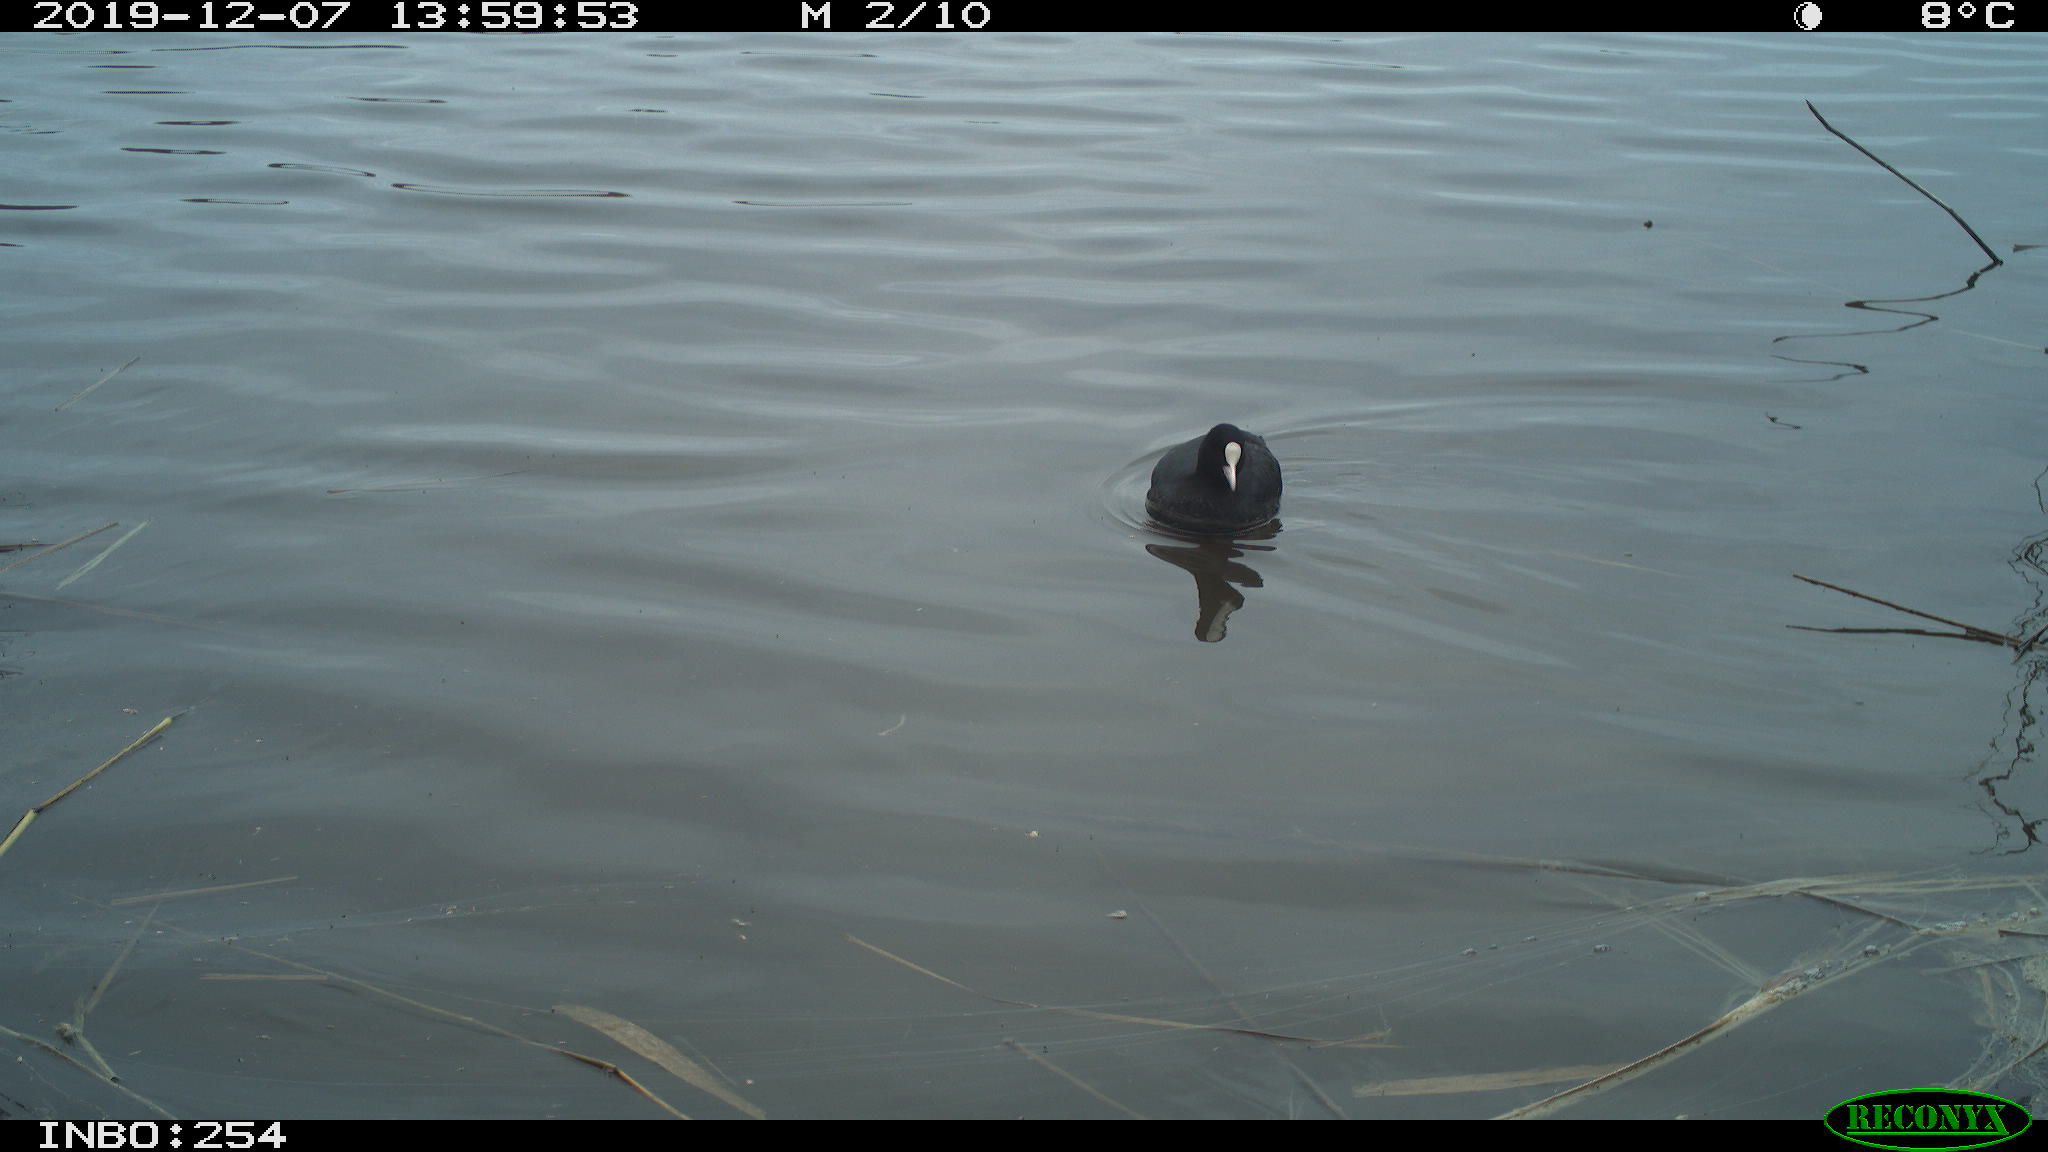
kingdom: Animalia
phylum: Chordata
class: Aves
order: Gruiformes
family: Rallidae
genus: Fulica
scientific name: Fulica atra
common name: Eurasian coot
